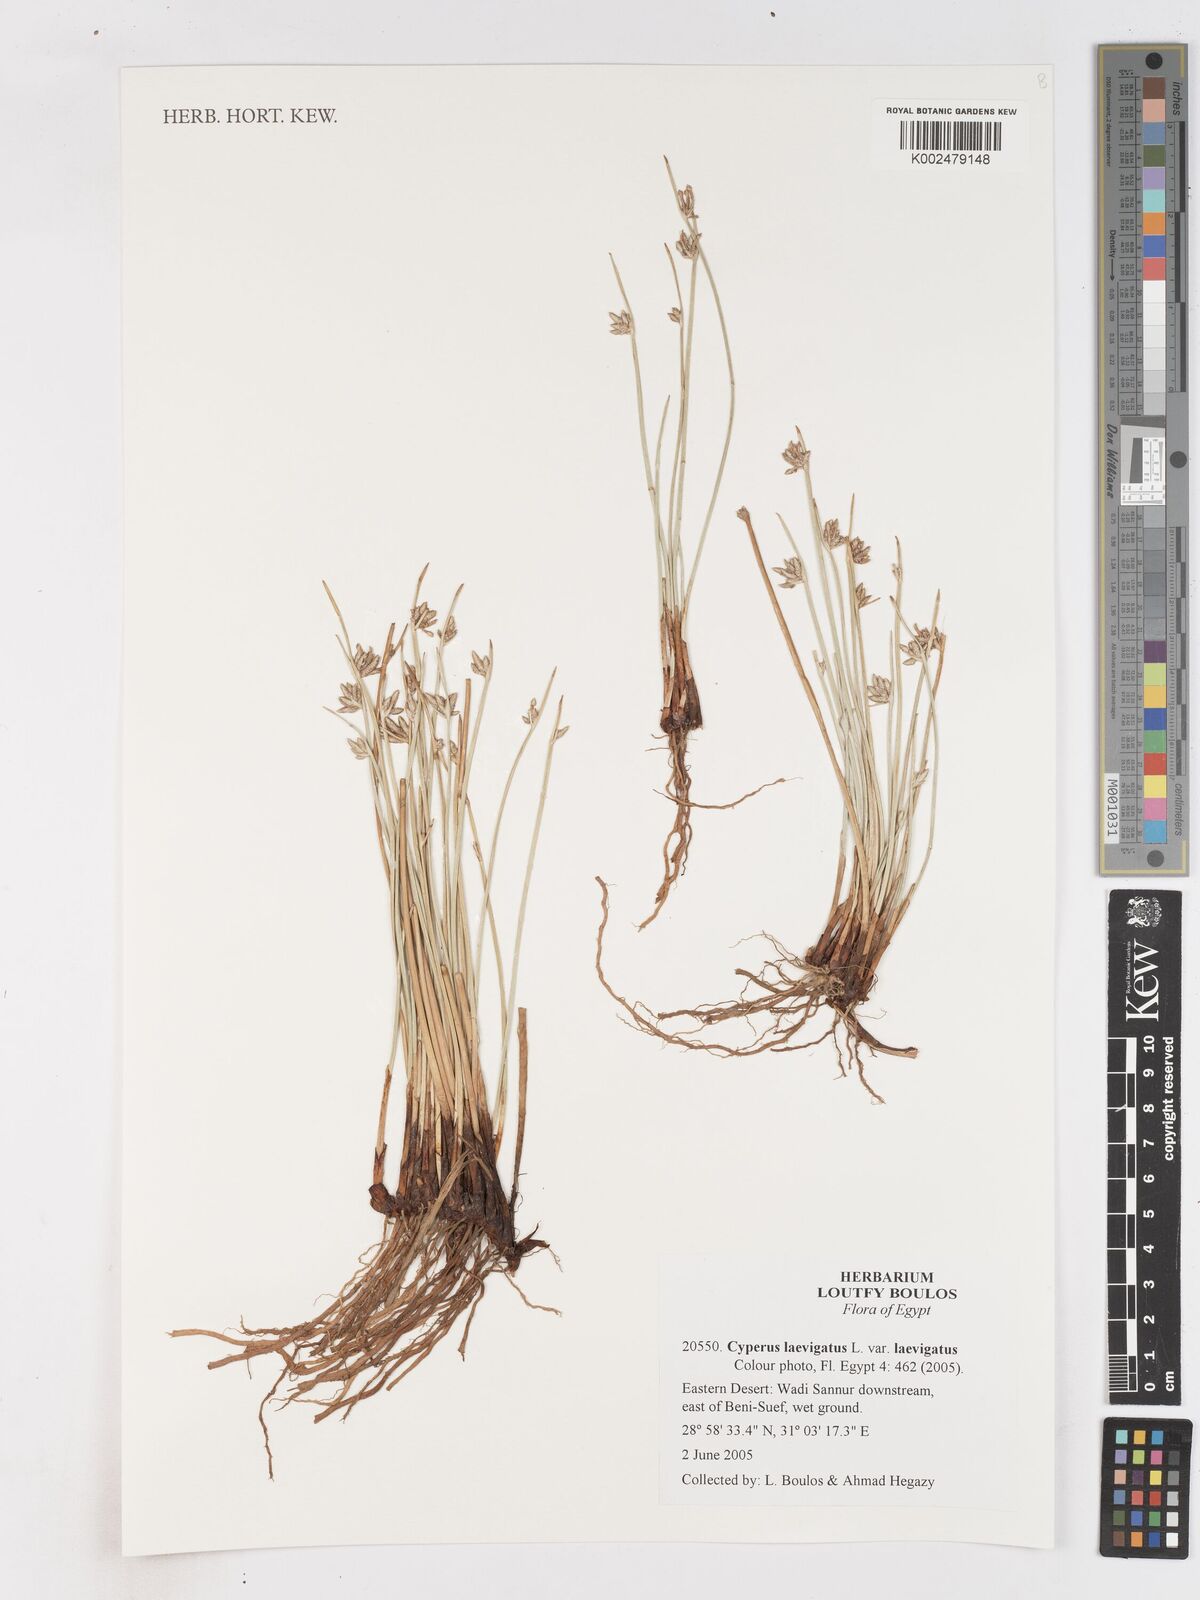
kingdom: Plantae
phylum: Tracheophyta
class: Liliopsida
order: Poales
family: Cyperaceae
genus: Cyperus
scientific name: Cyperus laevigatus
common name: Smooth flat sedge
